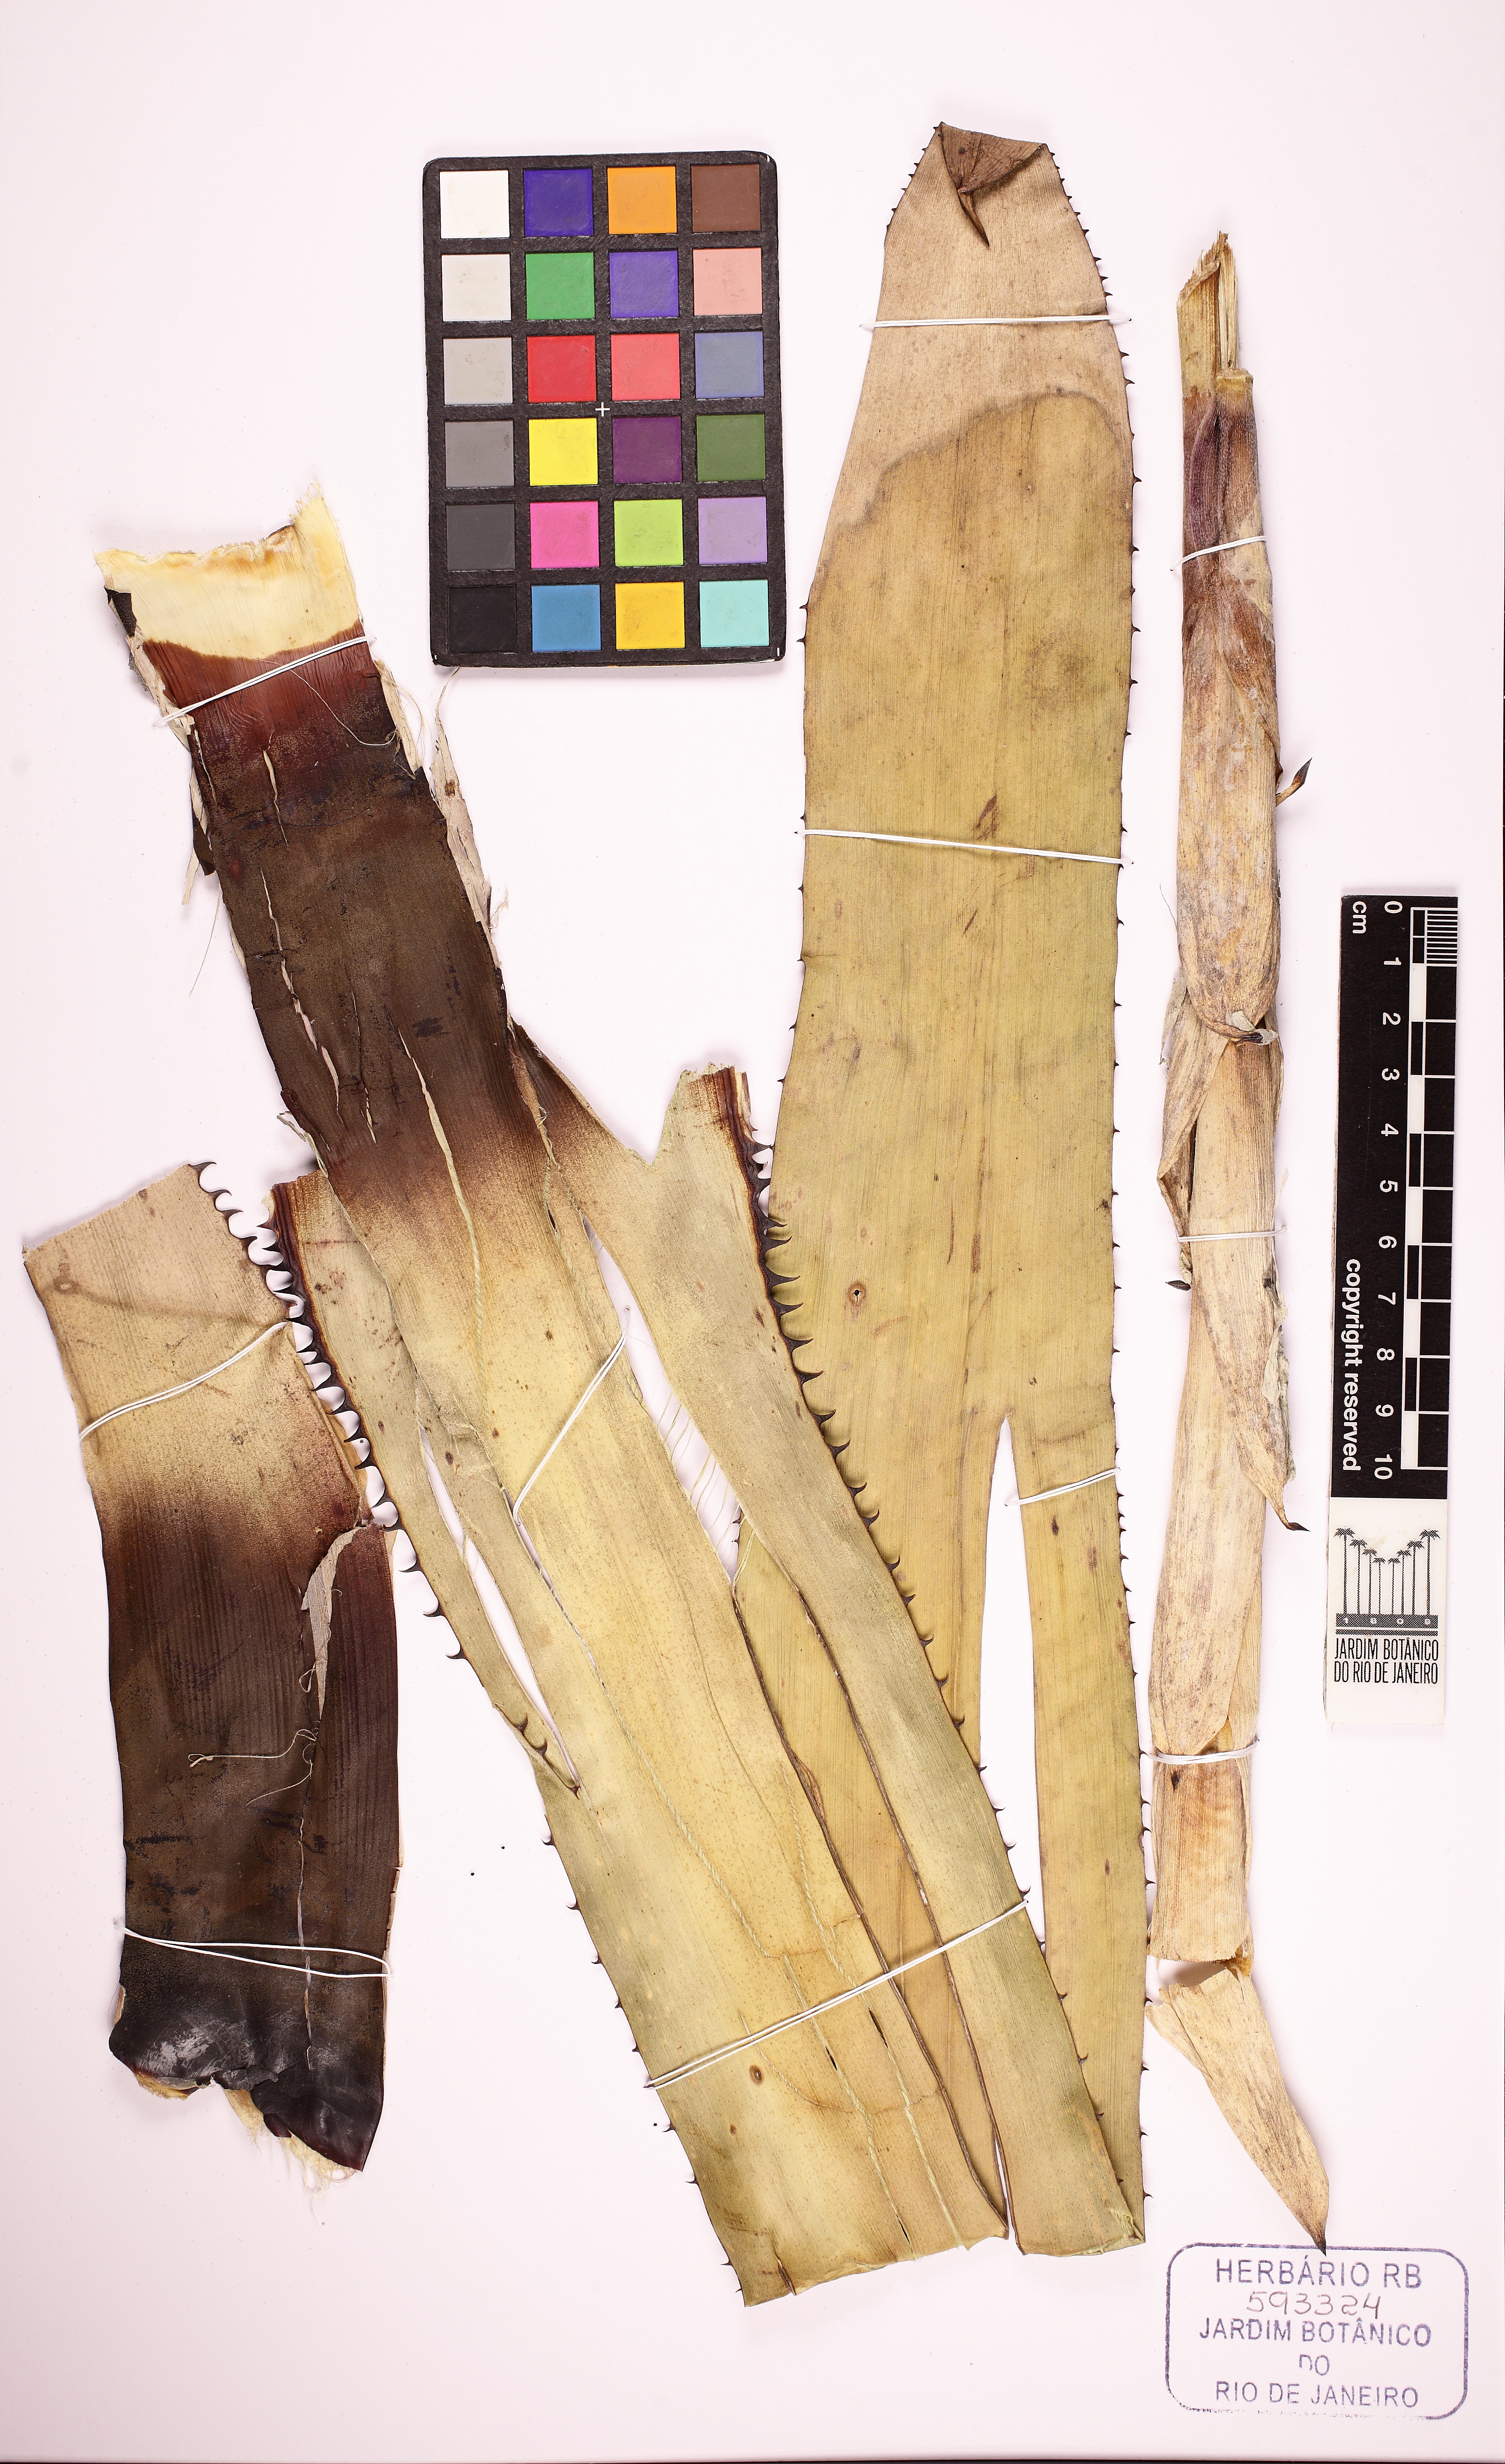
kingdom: Plantae
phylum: Tracheophyta
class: Liliopsida
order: Poales
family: Bromeliaceae
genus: Hohenbergia
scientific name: Hohenbergia
